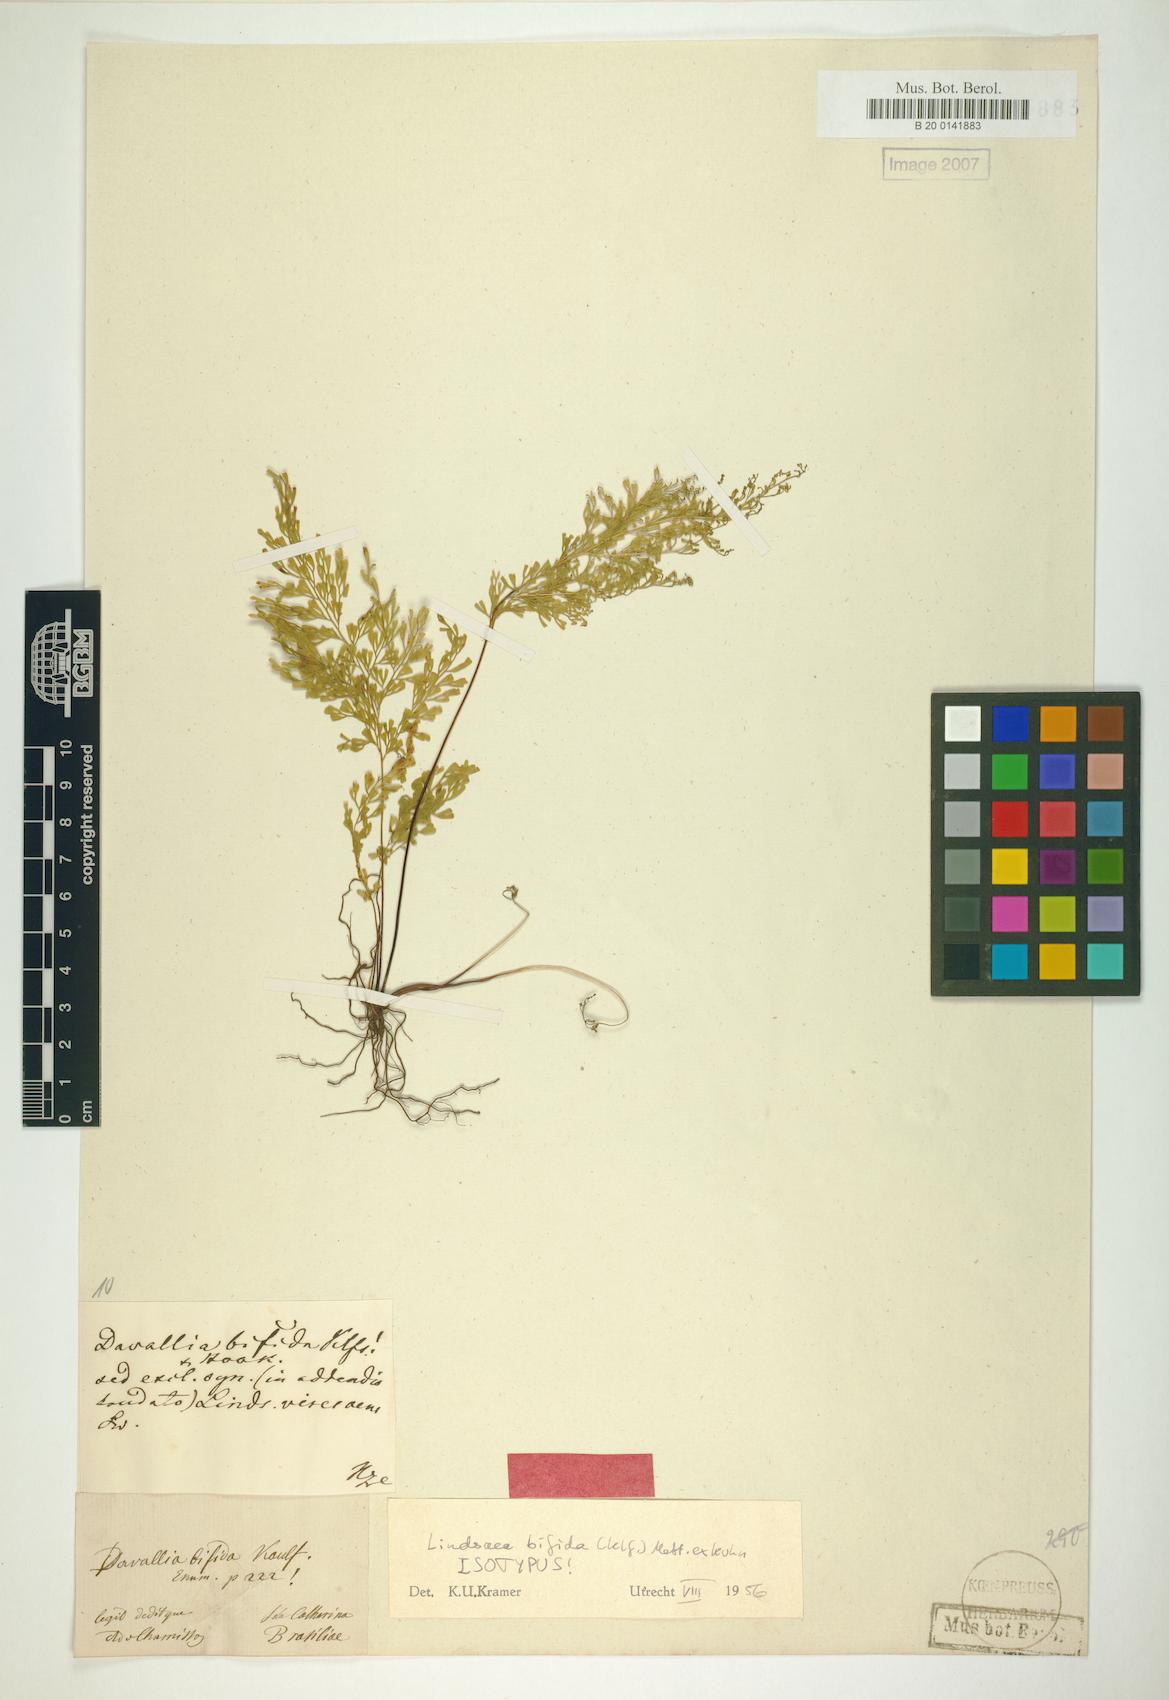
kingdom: Plantae
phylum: Tracheophyta
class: Polypodiopsida
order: Polypodiales
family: Lindsaeaceae
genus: Lindsaea
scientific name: Lindsaea bifida
